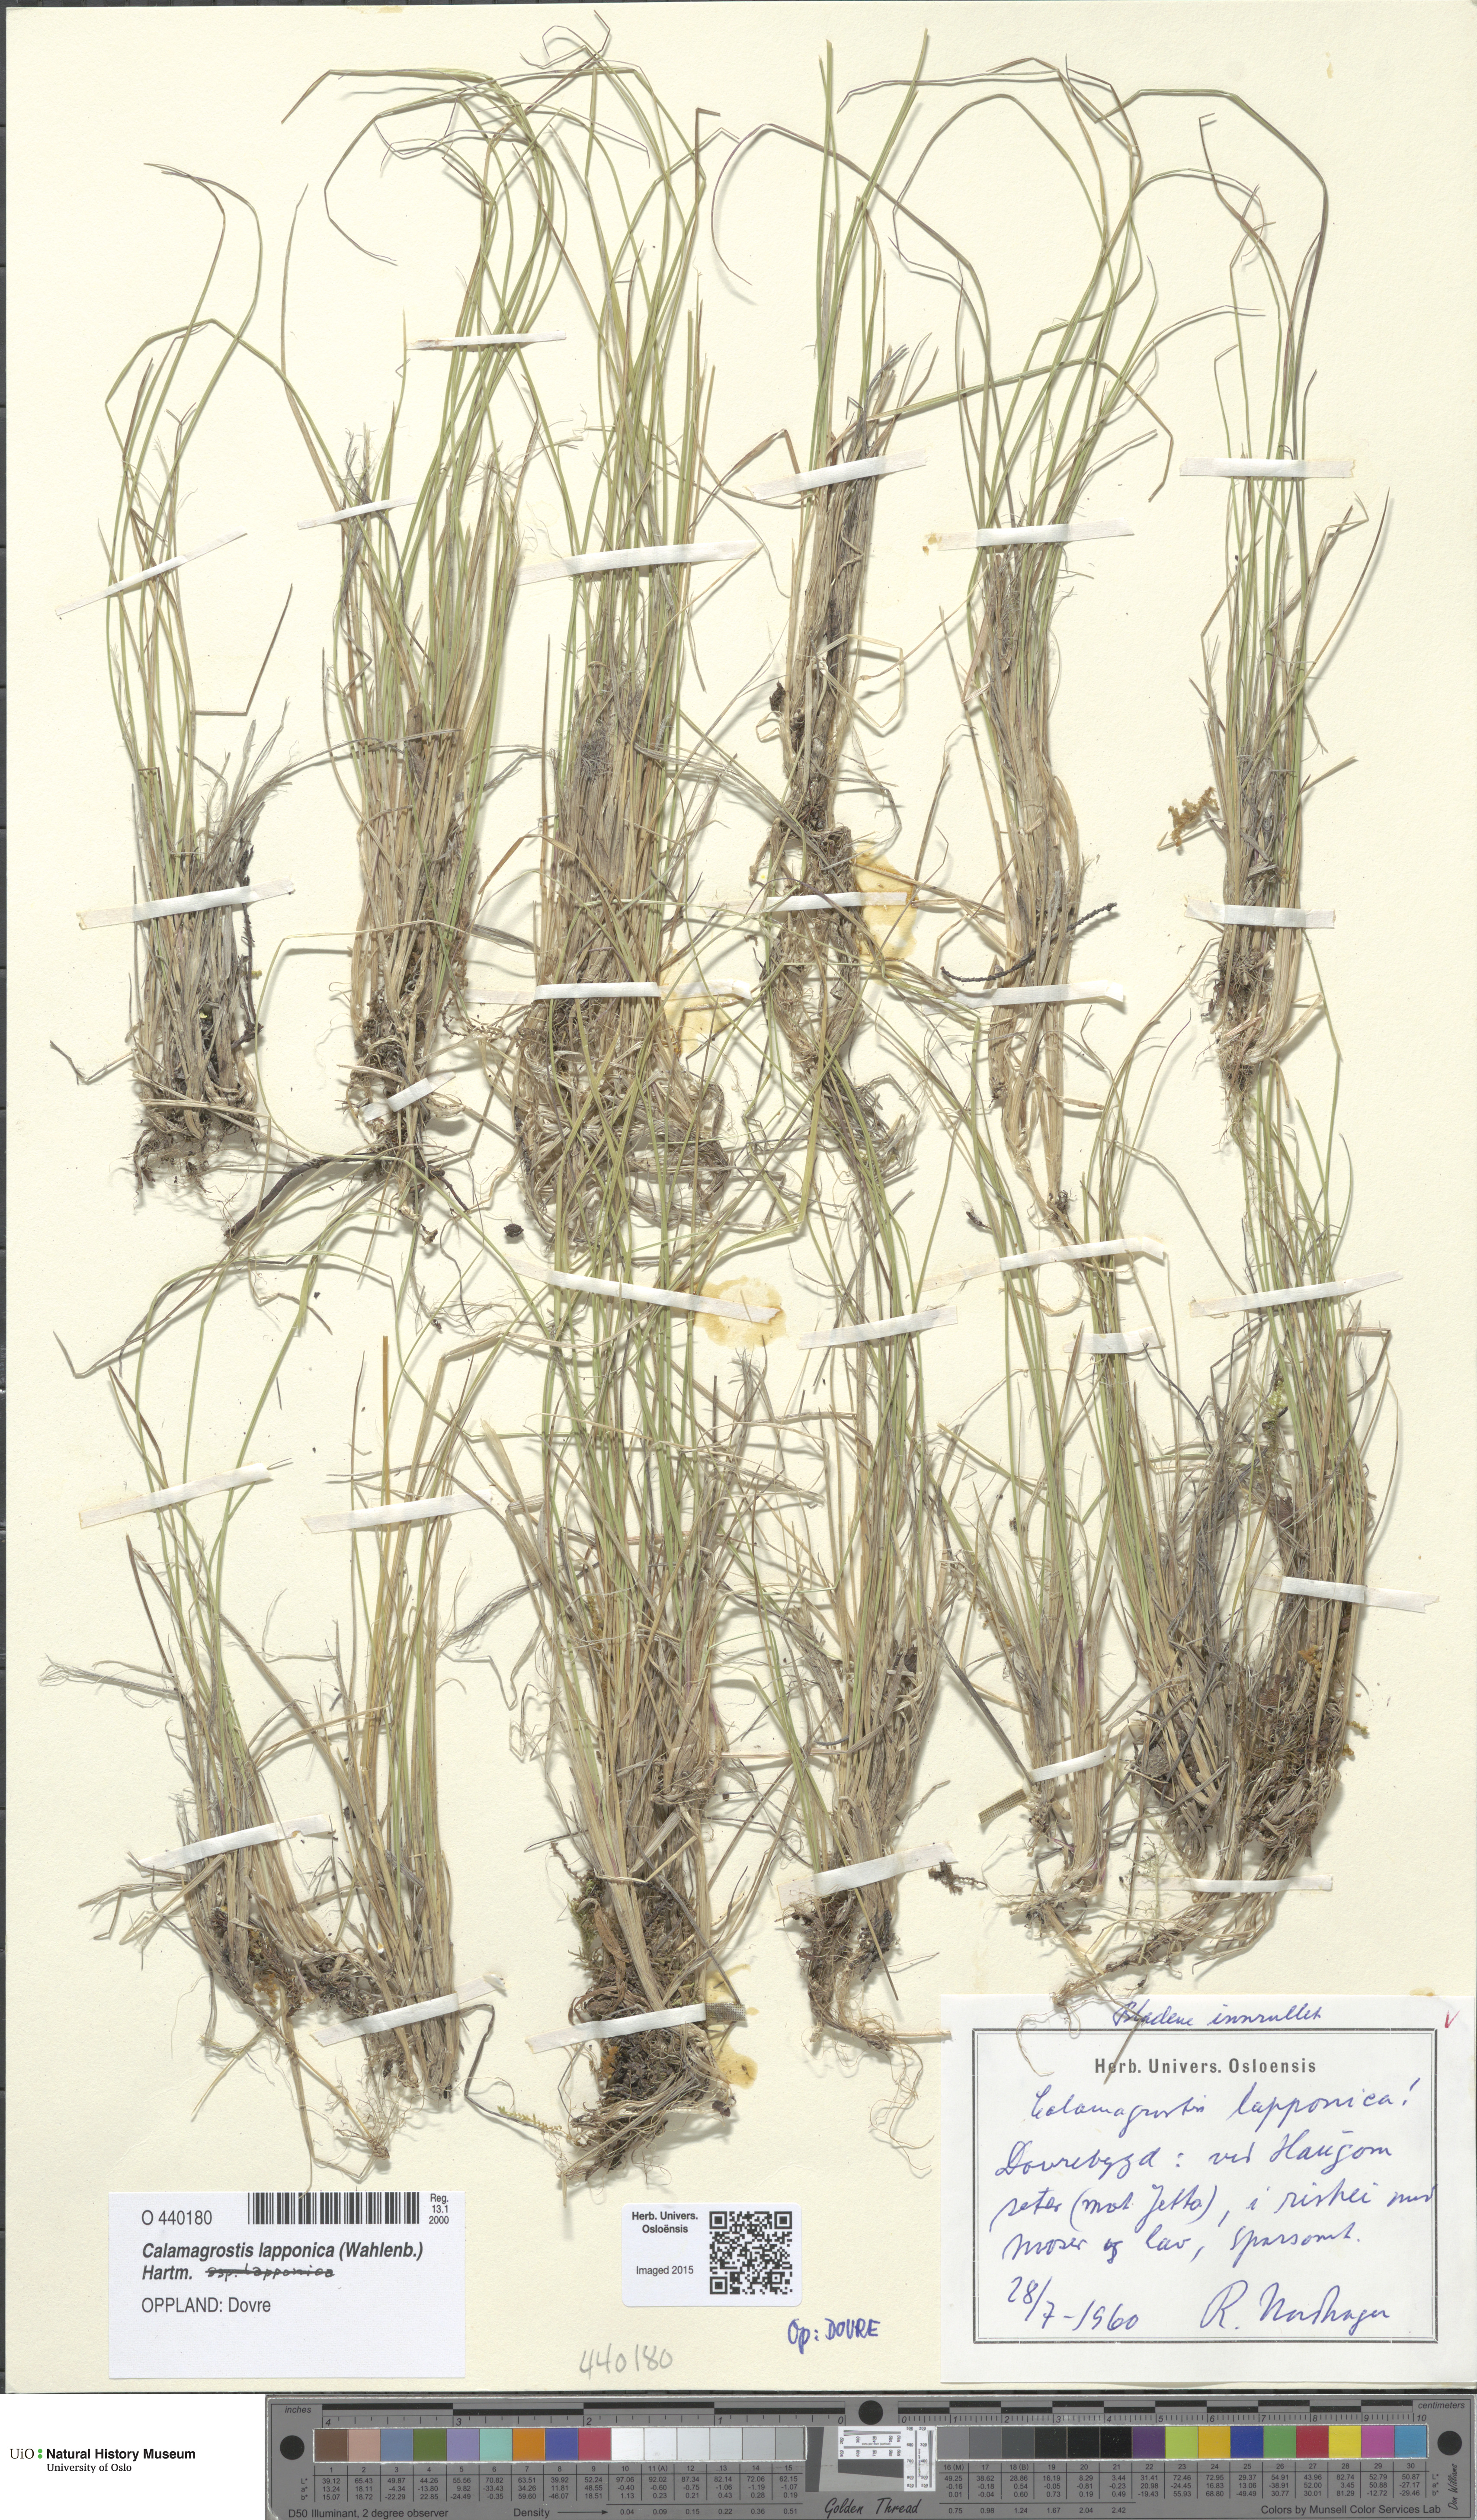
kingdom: Plantae
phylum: Tracheophyta
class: Liliopsida
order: Poales
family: Poaceae
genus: Calamagrostis
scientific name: Calamagrostis lapponica
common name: Lapland reedgrass
